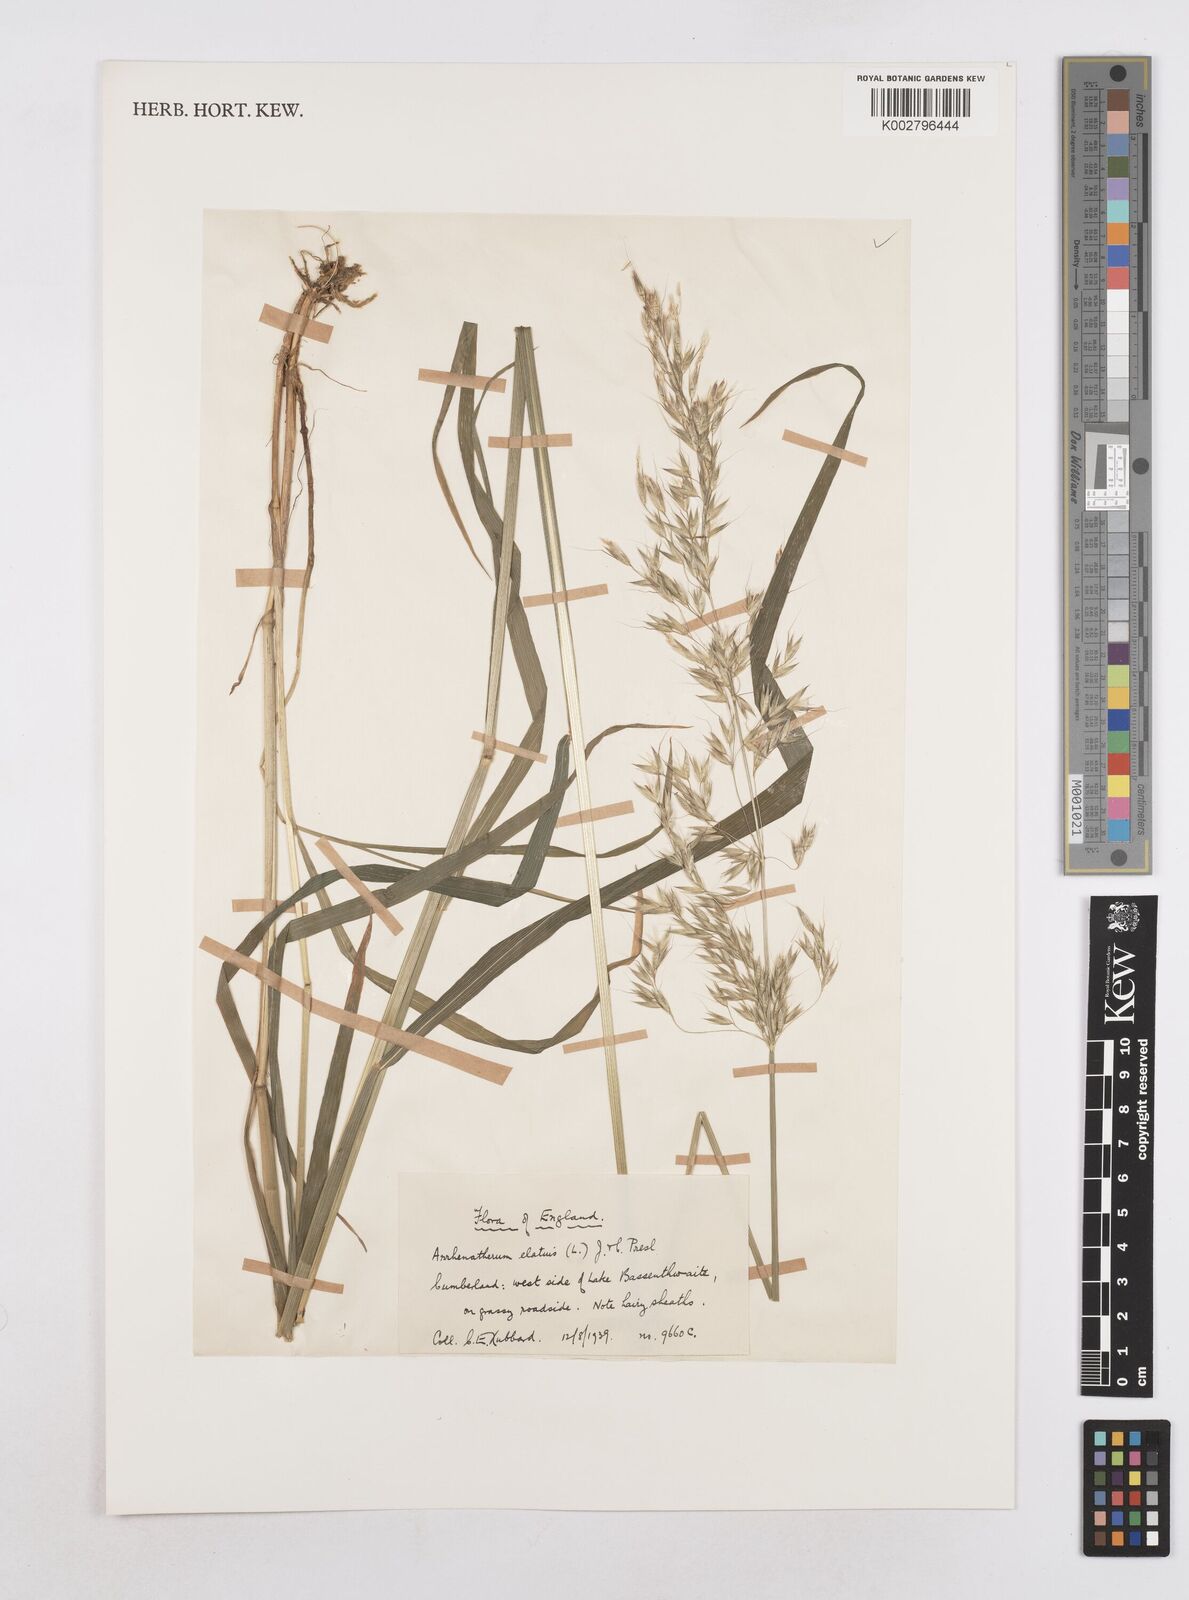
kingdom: Plantae
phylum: Tracheophyta
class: Liliopsida
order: Poales
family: Poaceae
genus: Arrhenatherum
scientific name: Arrhenatherum elatius
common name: Tall oatgrass
